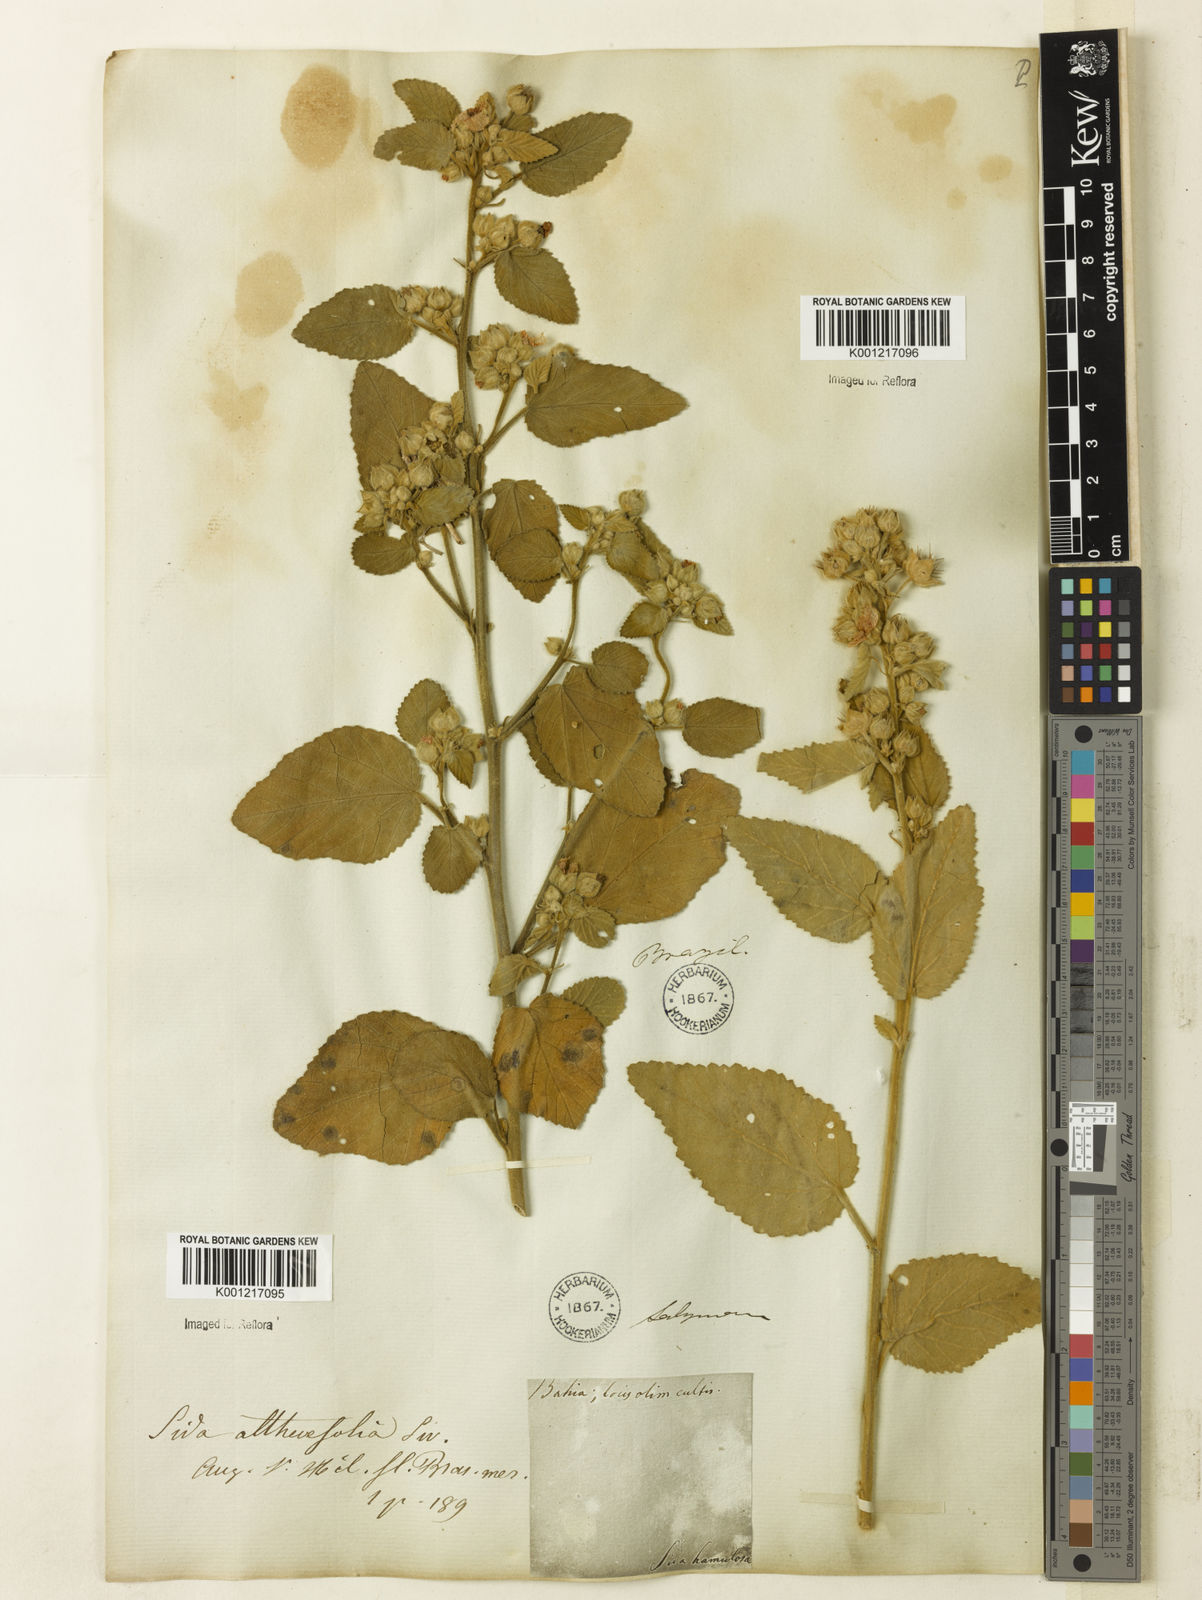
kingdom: Plantae
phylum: Tracheophyta
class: Magnoliopsida
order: Malvales
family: Malvaceae
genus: Sida
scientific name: Sida cordifolia
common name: Ilima
